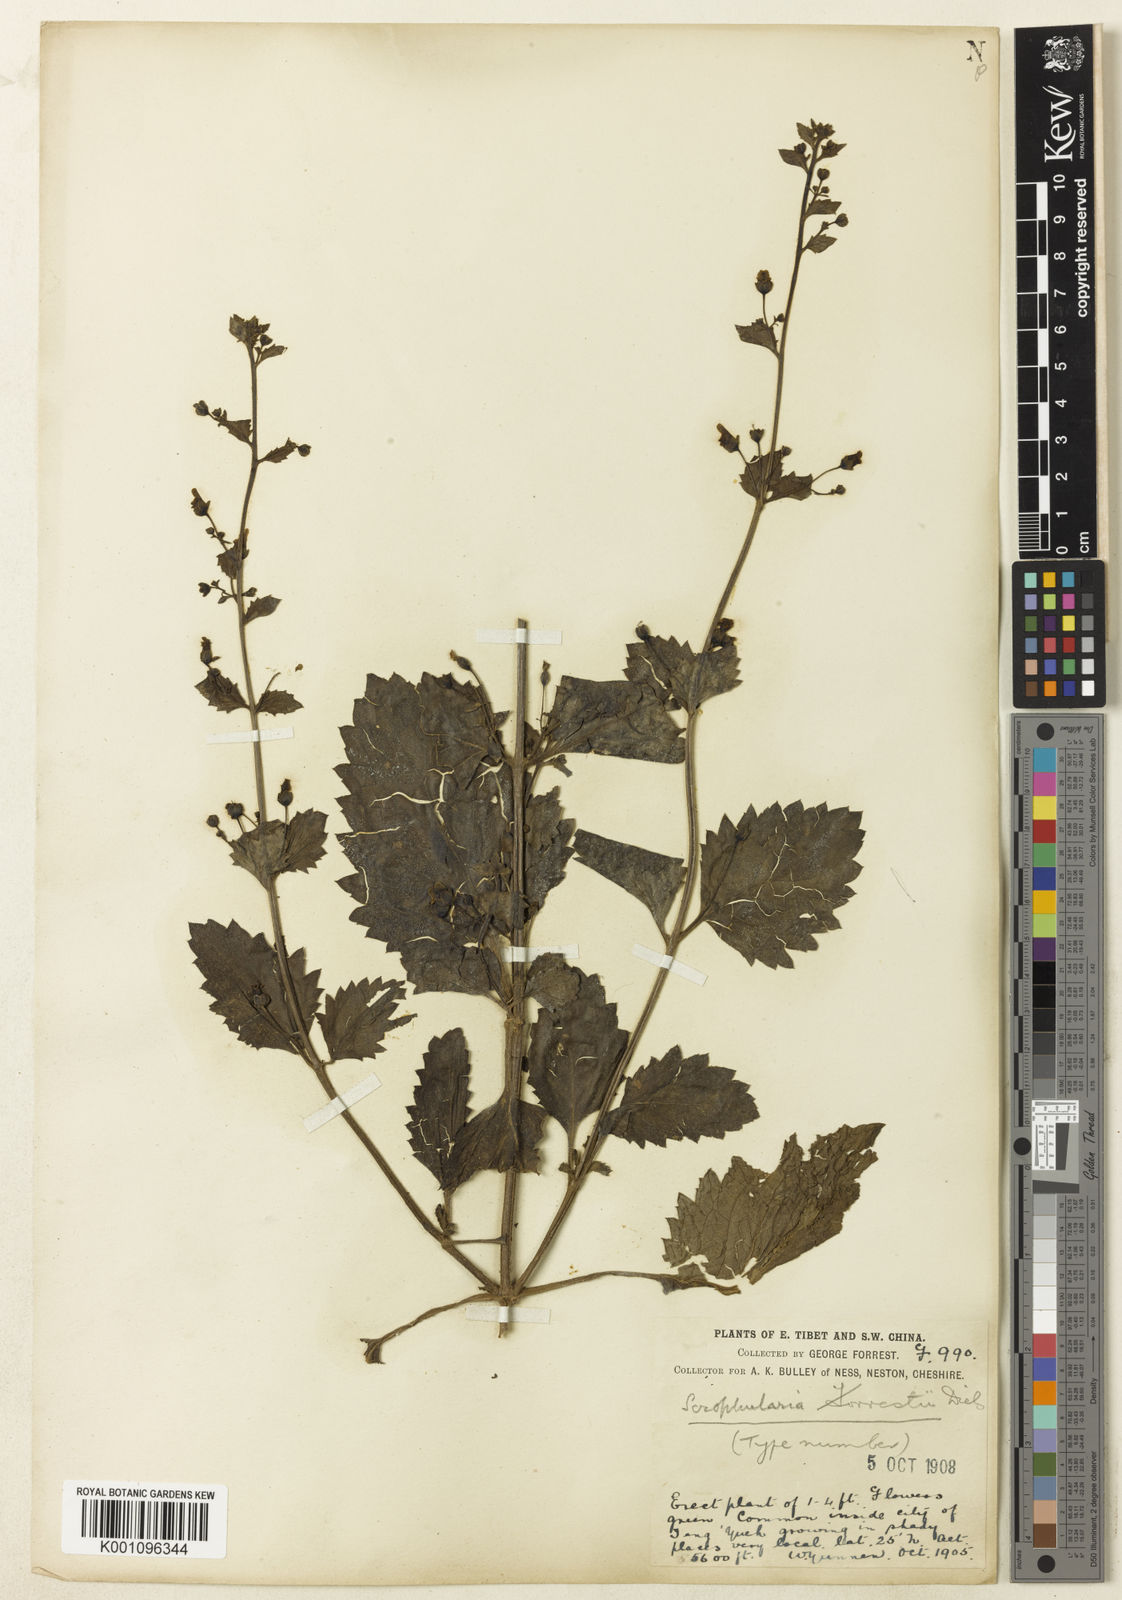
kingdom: Plantae
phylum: Tracheophyta
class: Magnoliopsida
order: Lamiales
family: Scrophulariaceae
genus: Scrophularia
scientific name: Scrophularia urticifolia
